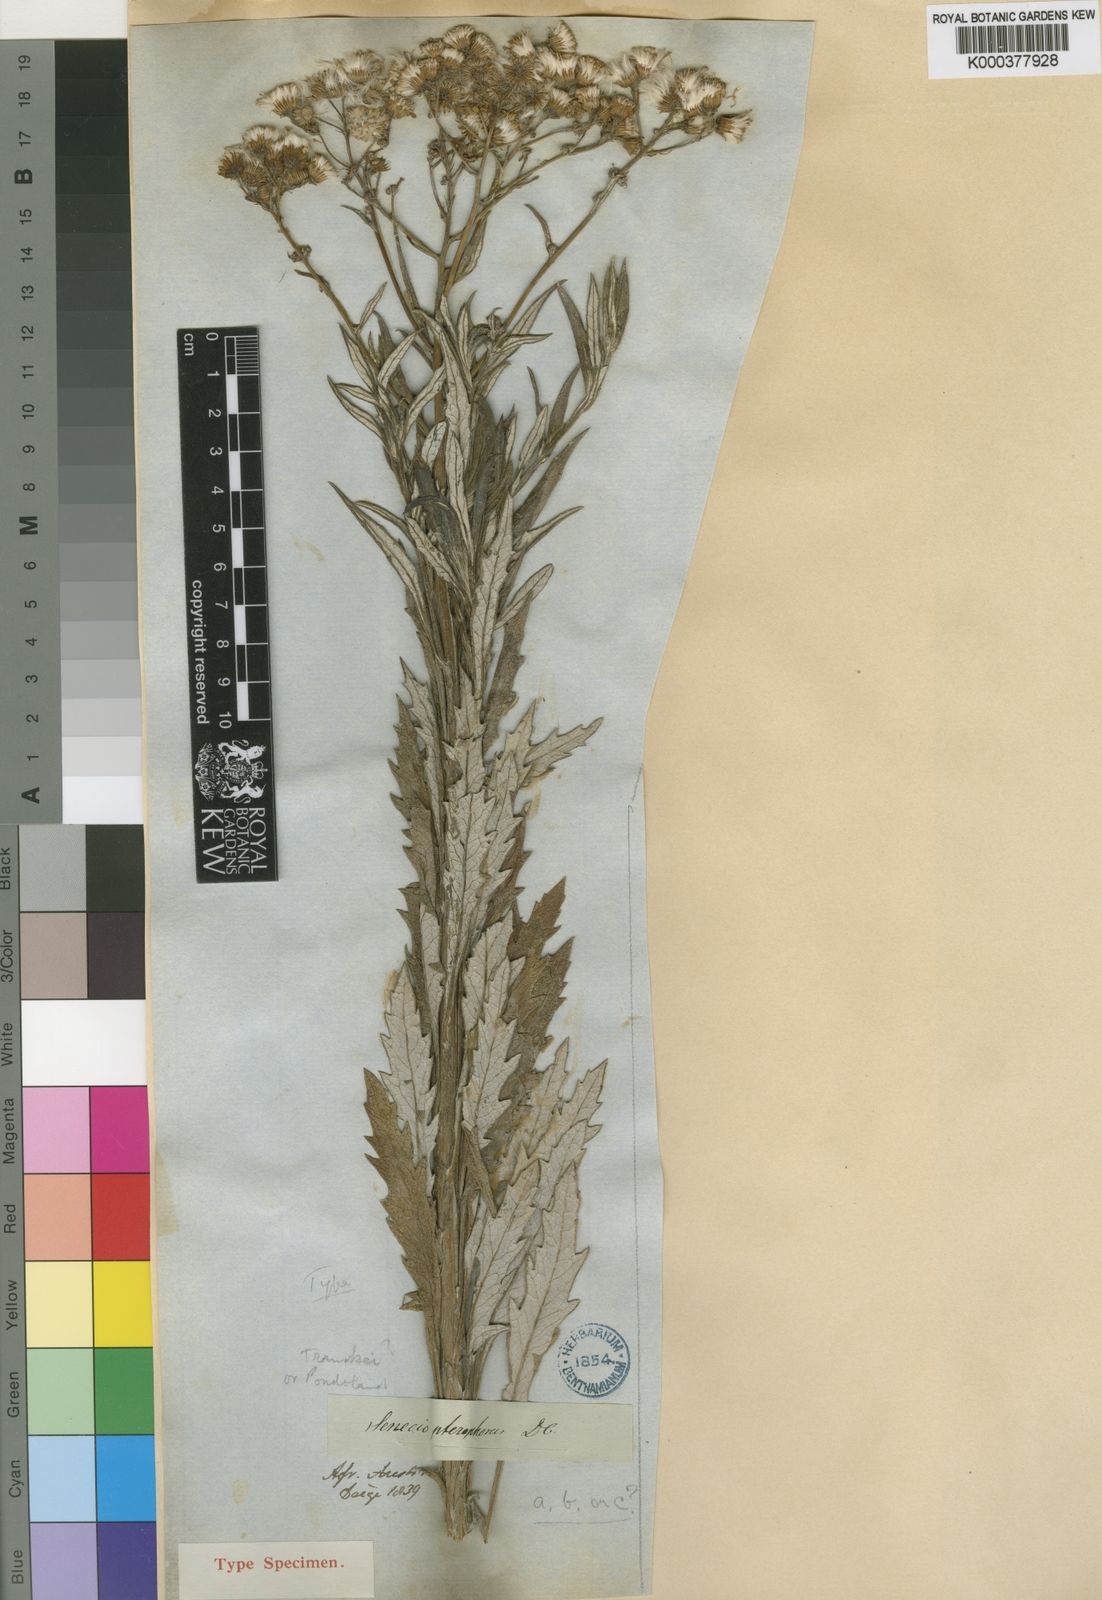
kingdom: Plantae
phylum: Tracheophyta
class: Magnoliopsida
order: Asterales
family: Asteraceae
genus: Senecio
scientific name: Senecio pterophorus
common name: Shoddy ragwort
